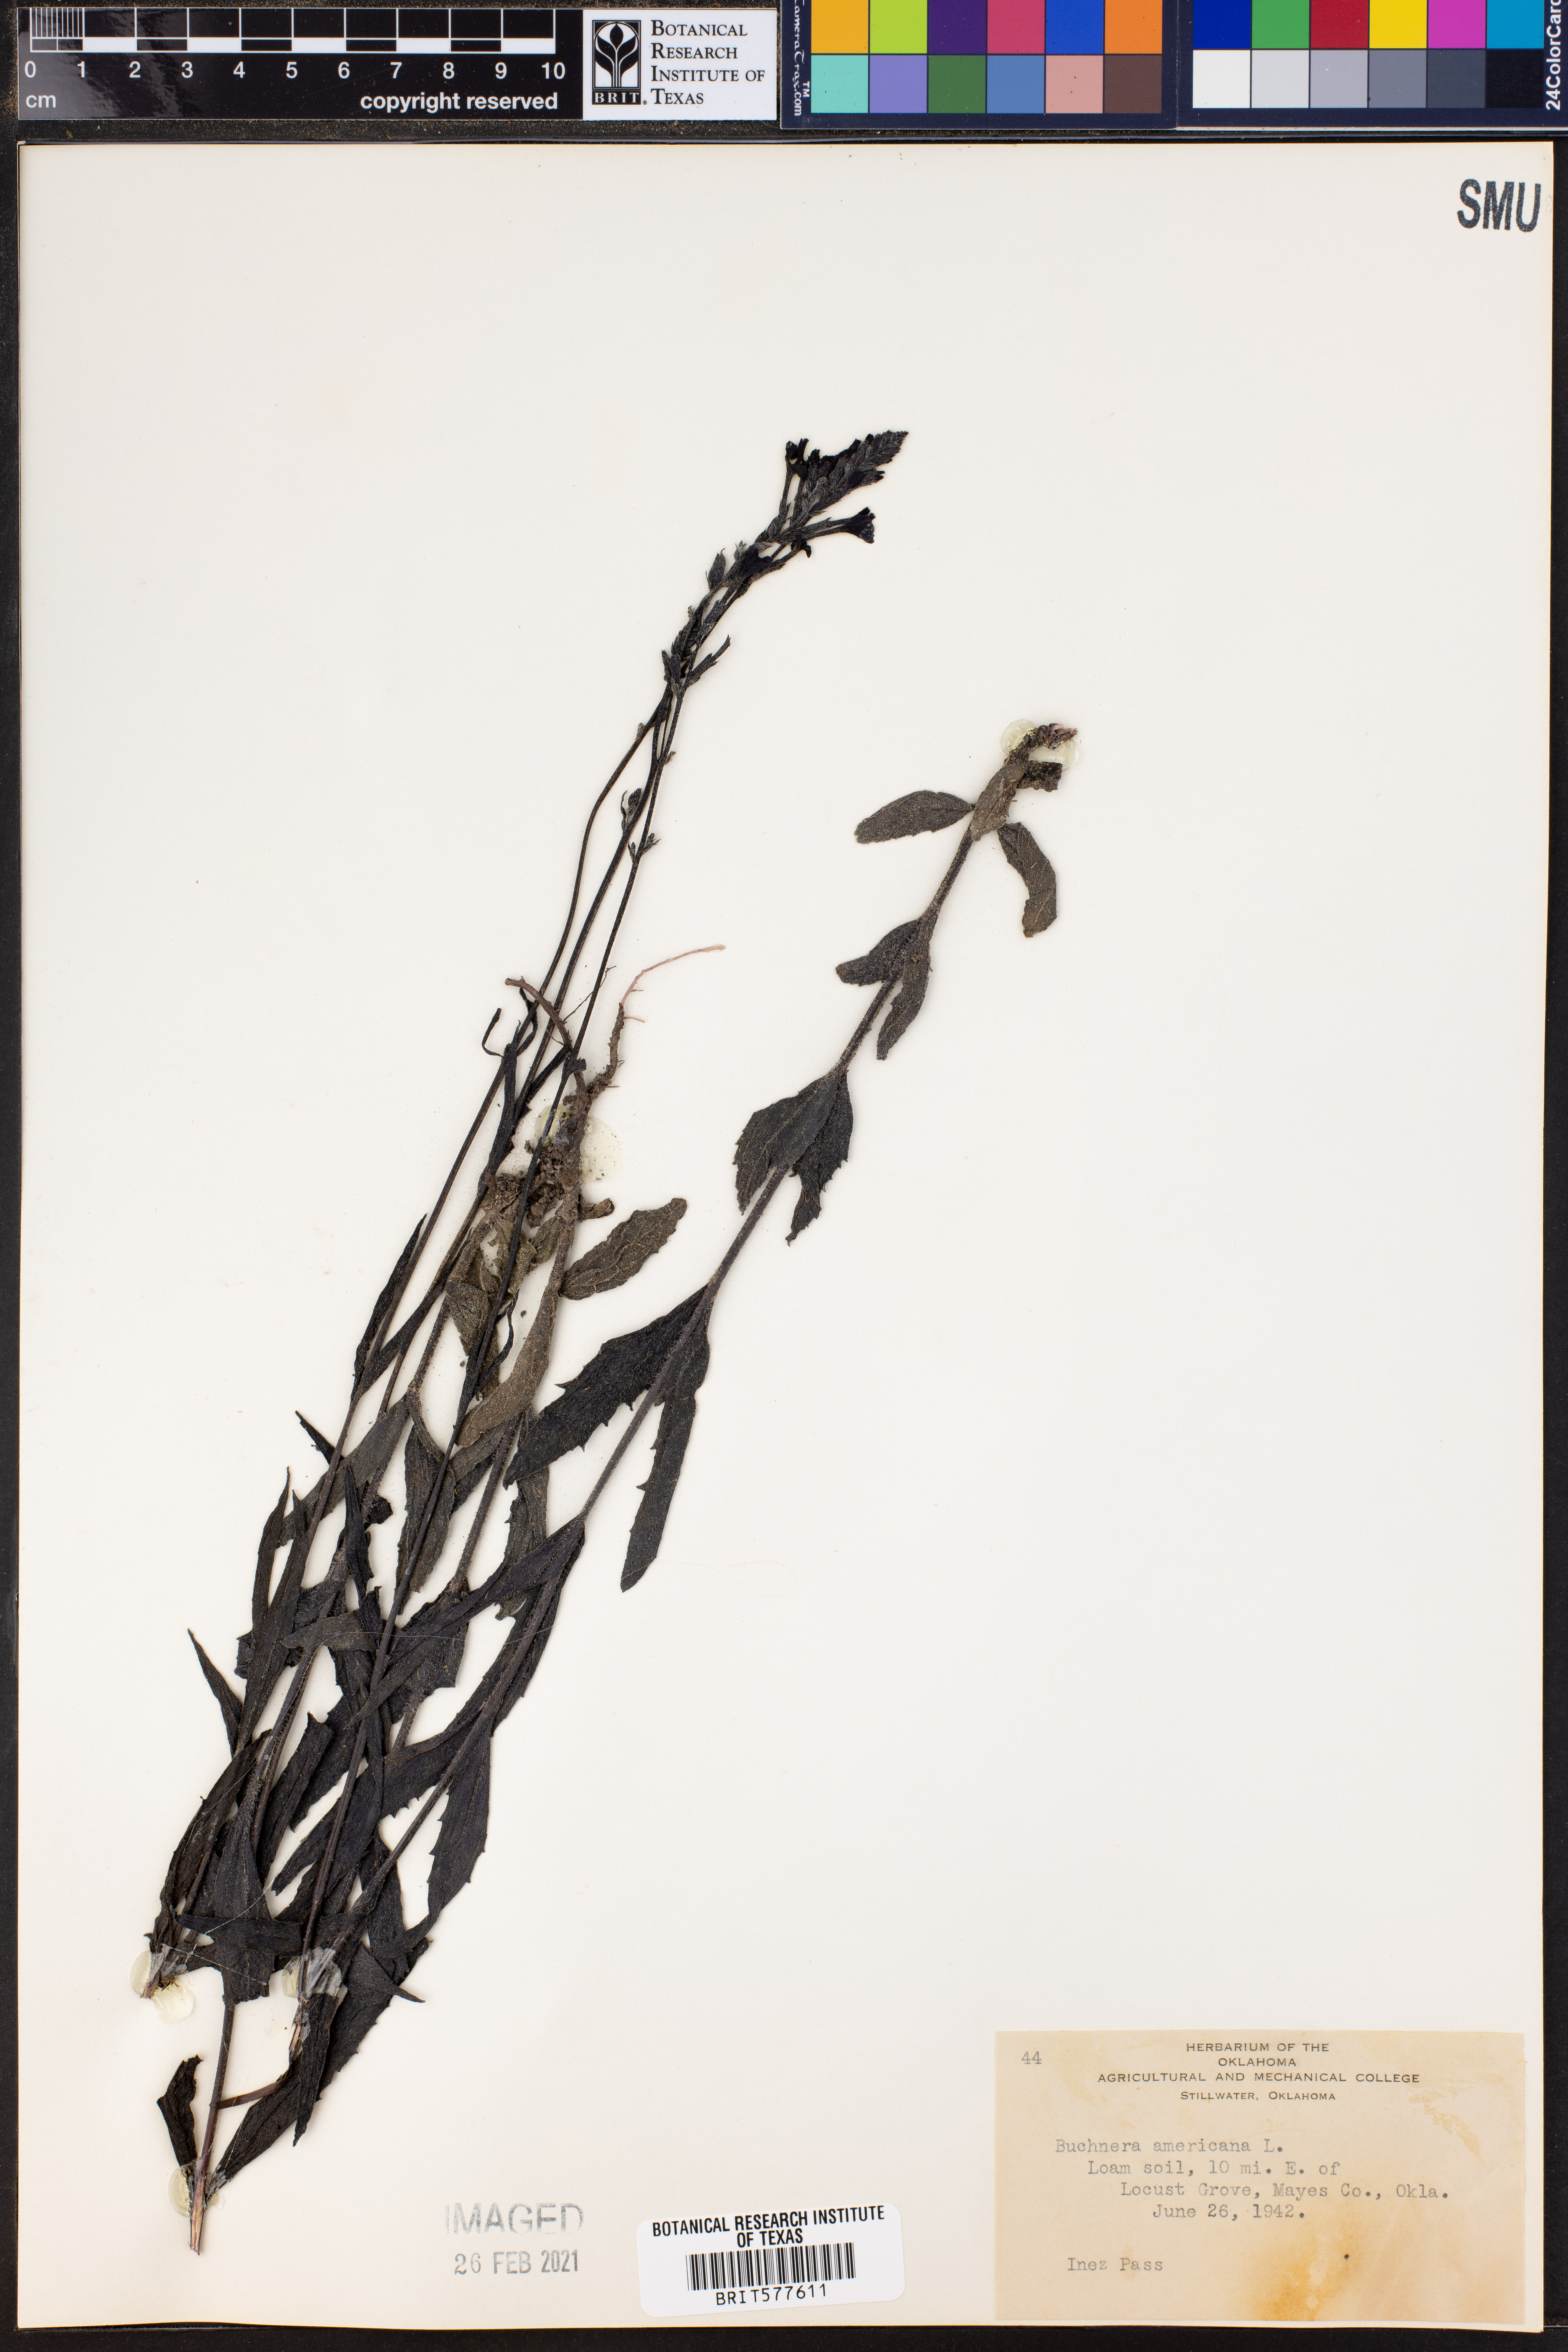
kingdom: Plantae
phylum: Tracheophyta
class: Magnoliopsida
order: Lamiales
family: Orobanchaceae
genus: Buchnera
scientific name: Buchnera americana
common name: American bluehearts
